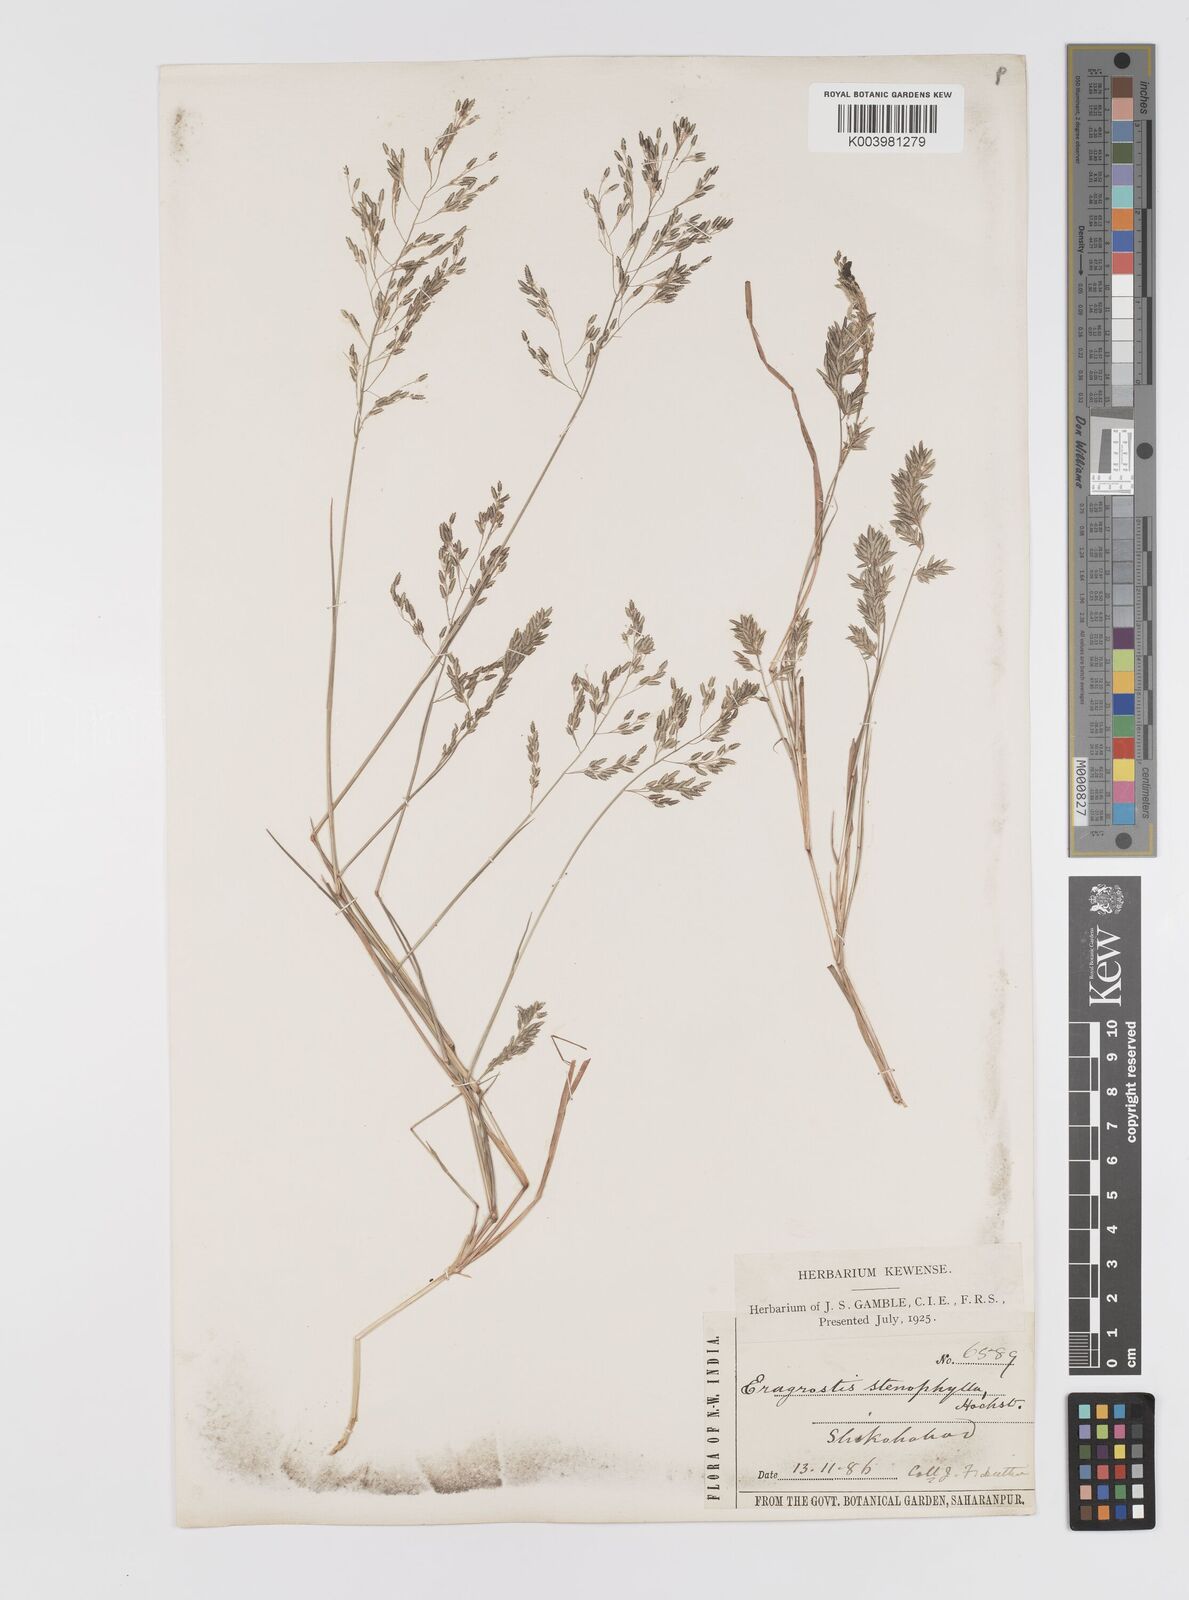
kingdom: Plantae
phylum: Tracheophyta
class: Liliopsida
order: Poales
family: Poaceae
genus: Eragrostis
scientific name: Eragrostis gangetica
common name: Slimflower lovegrass
